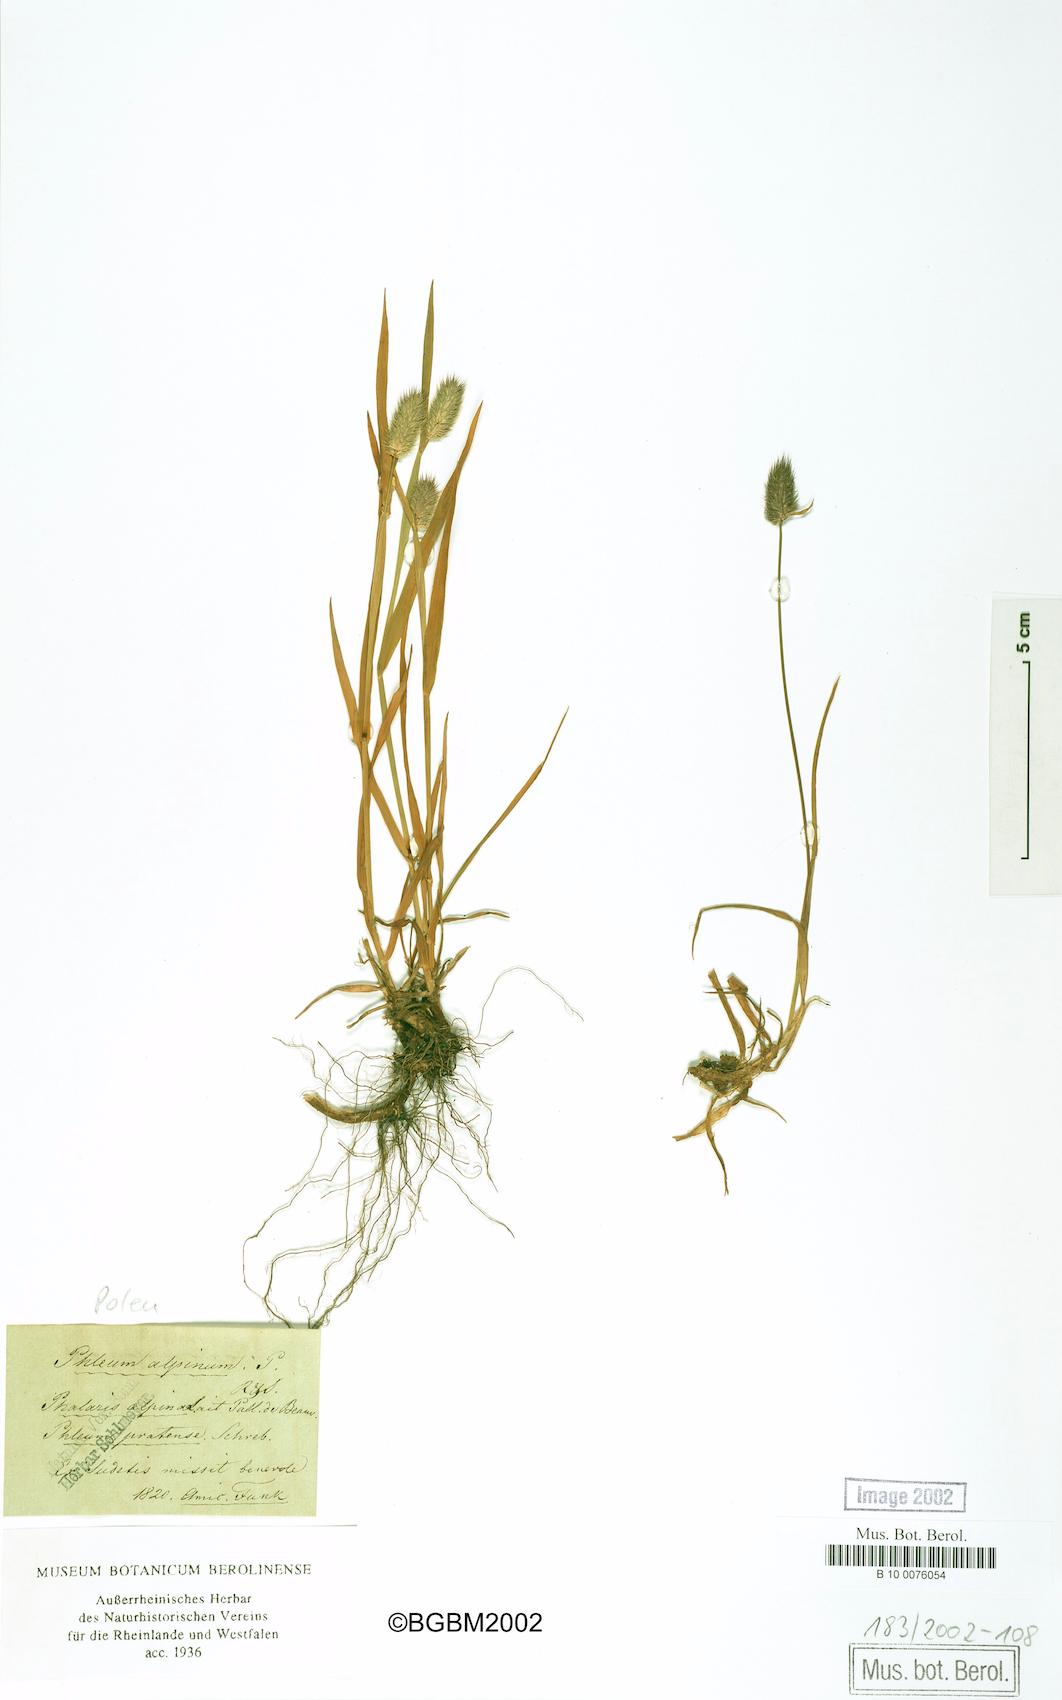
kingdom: Plantae
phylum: Tracheophyta
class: Liliopsida
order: Poales
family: Poaceae
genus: Phleum
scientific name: Phleum alpinum
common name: Alpine cat's-tail
